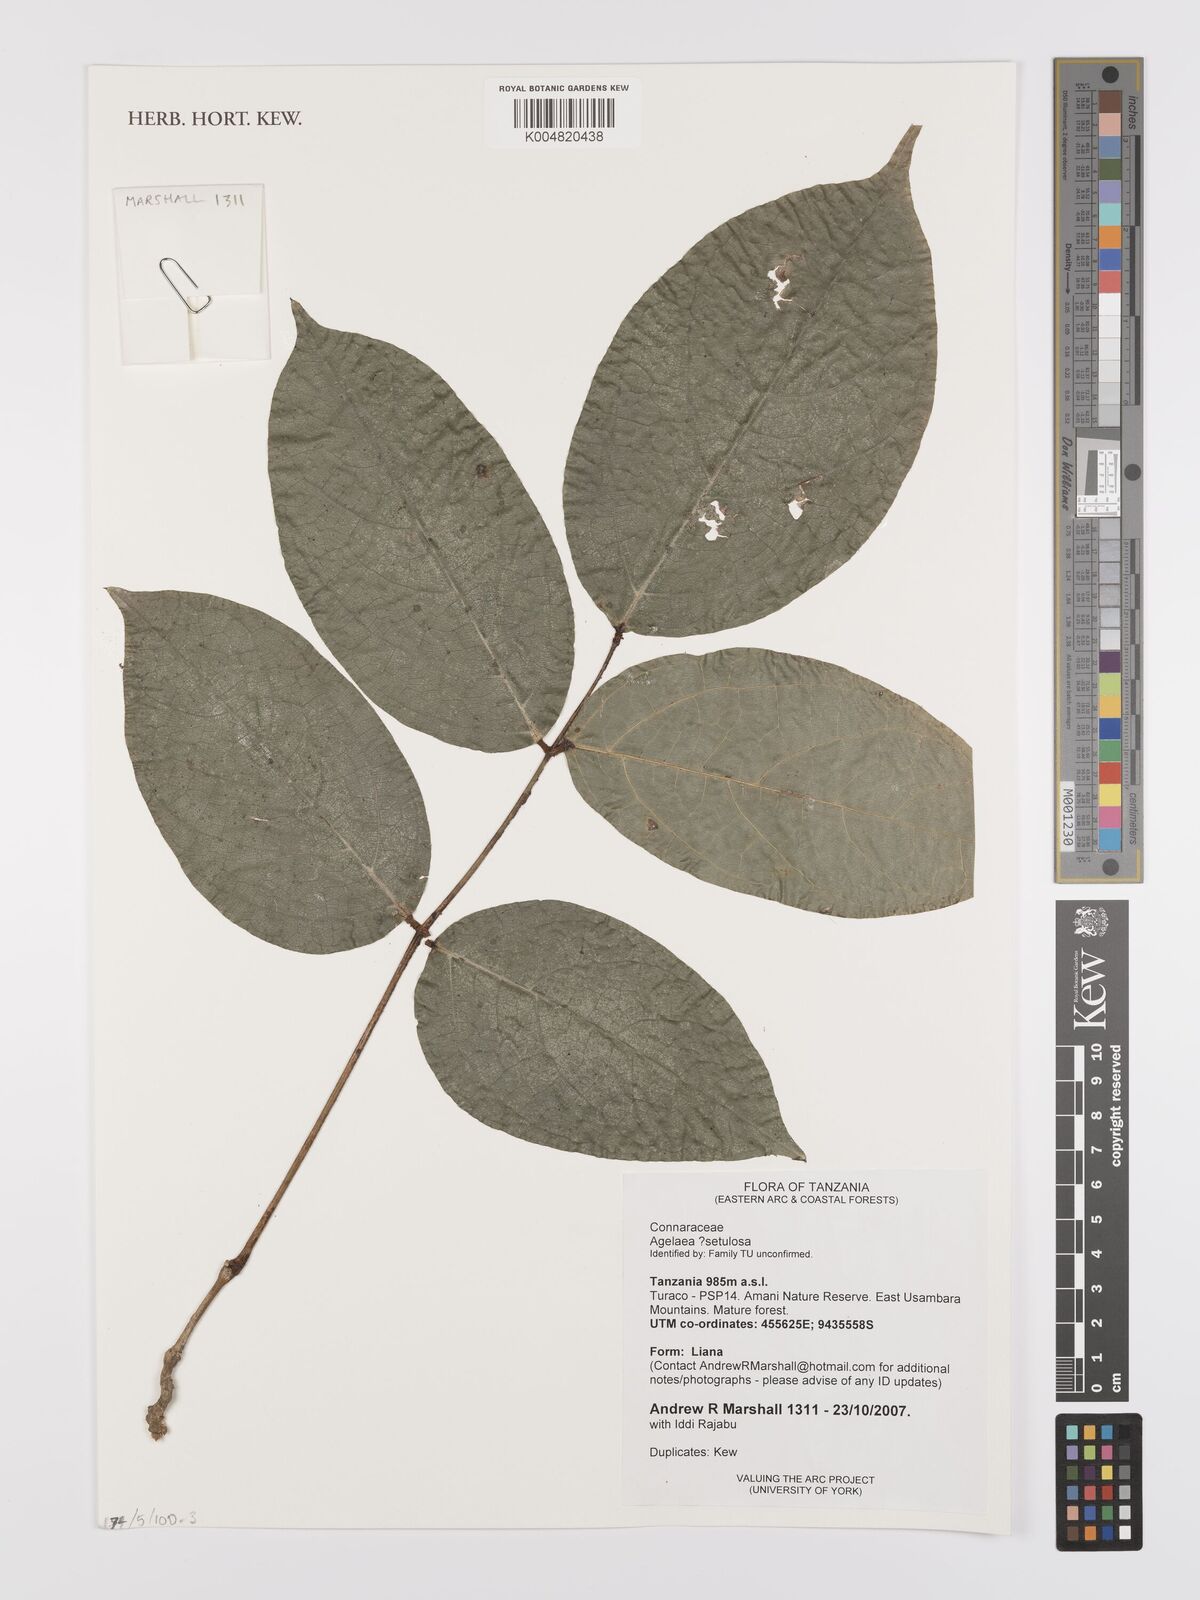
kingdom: Plantae
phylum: Tracheophyta
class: Magnoliopsida
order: Oxalidales
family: Connaraceae
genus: Agelaea
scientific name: Agelaea
